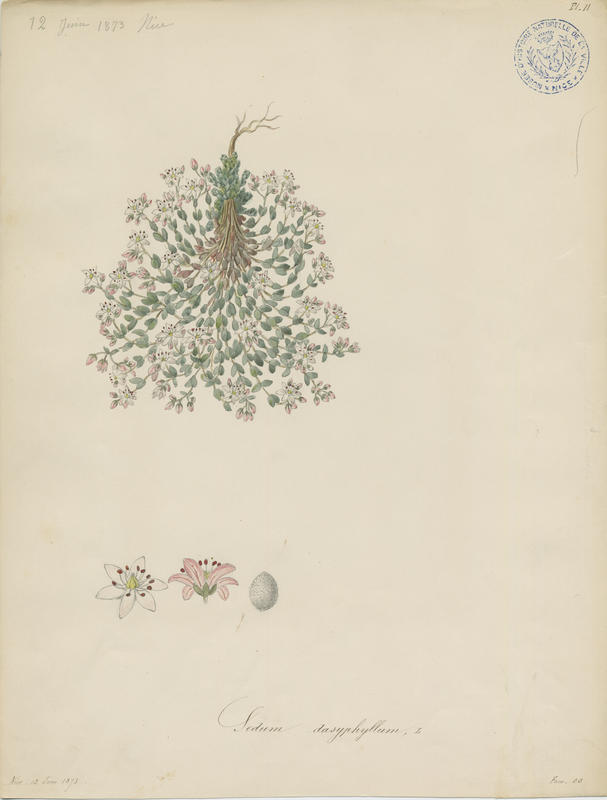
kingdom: Plantae
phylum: Tracheophyta
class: Magnoliopsida
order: Saxifragales
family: Crassulaceae
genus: Sedum
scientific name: Sedum dasyphyllum
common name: Thick-leaf stonecrop
